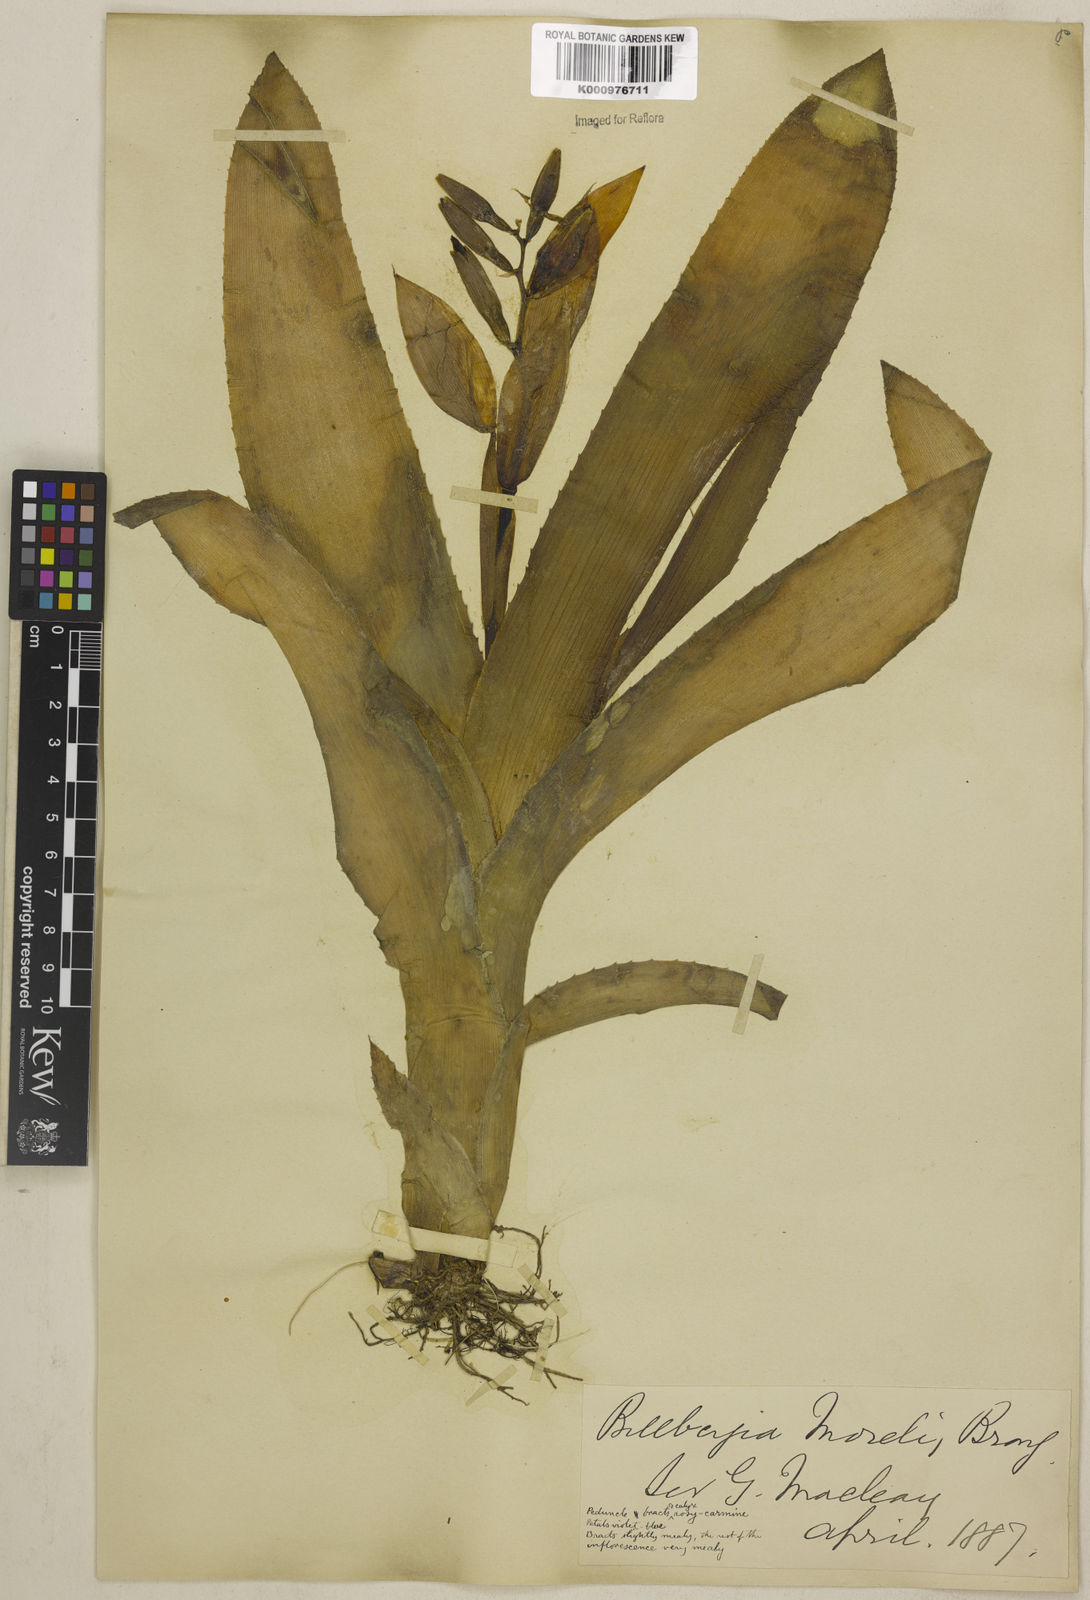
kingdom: Plantae
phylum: Tracheophyta
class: Liliopsida
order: Poales
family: Bromeliaceae
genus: Billbergia
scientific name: Billbergia morelii
